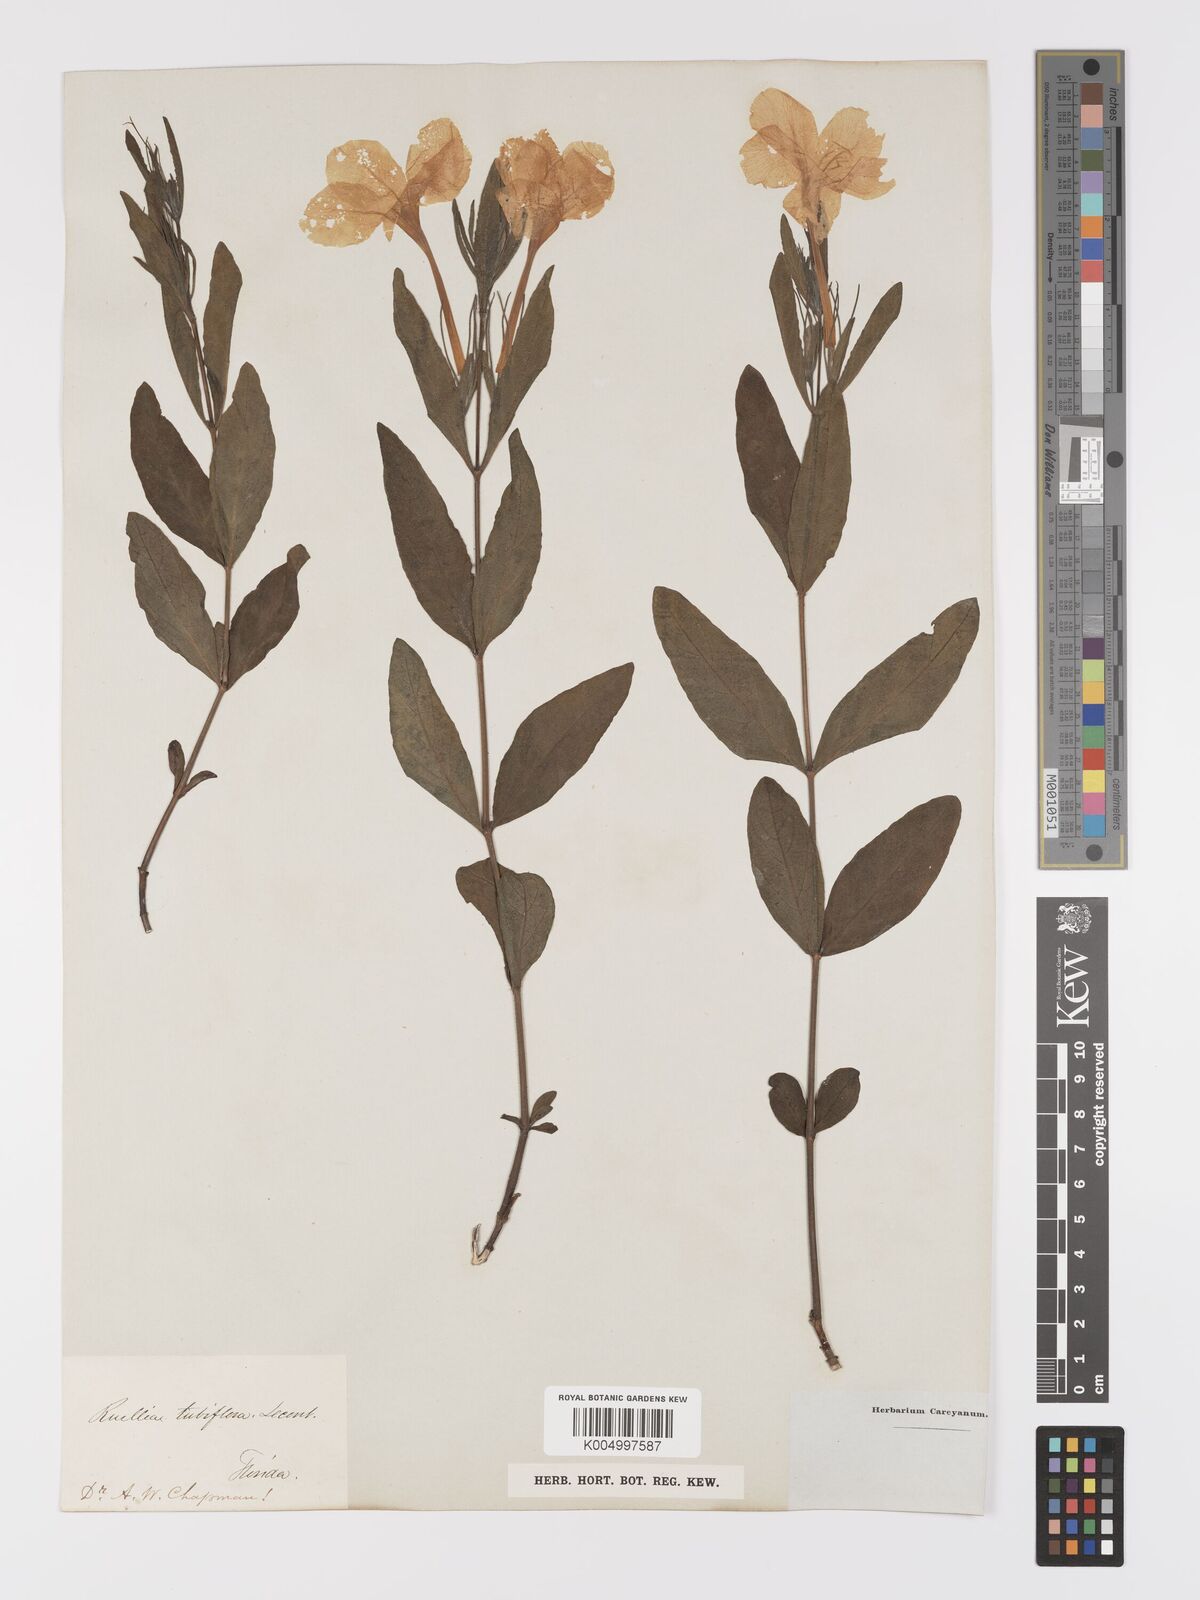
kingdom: Plantae
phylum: Tracheophyta
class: Magnoliopsida
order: Lamiales
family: Acanthaceae
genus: Ruellia
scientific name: Ruellia ciliatiflora
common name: Hairyflower wild petunia
